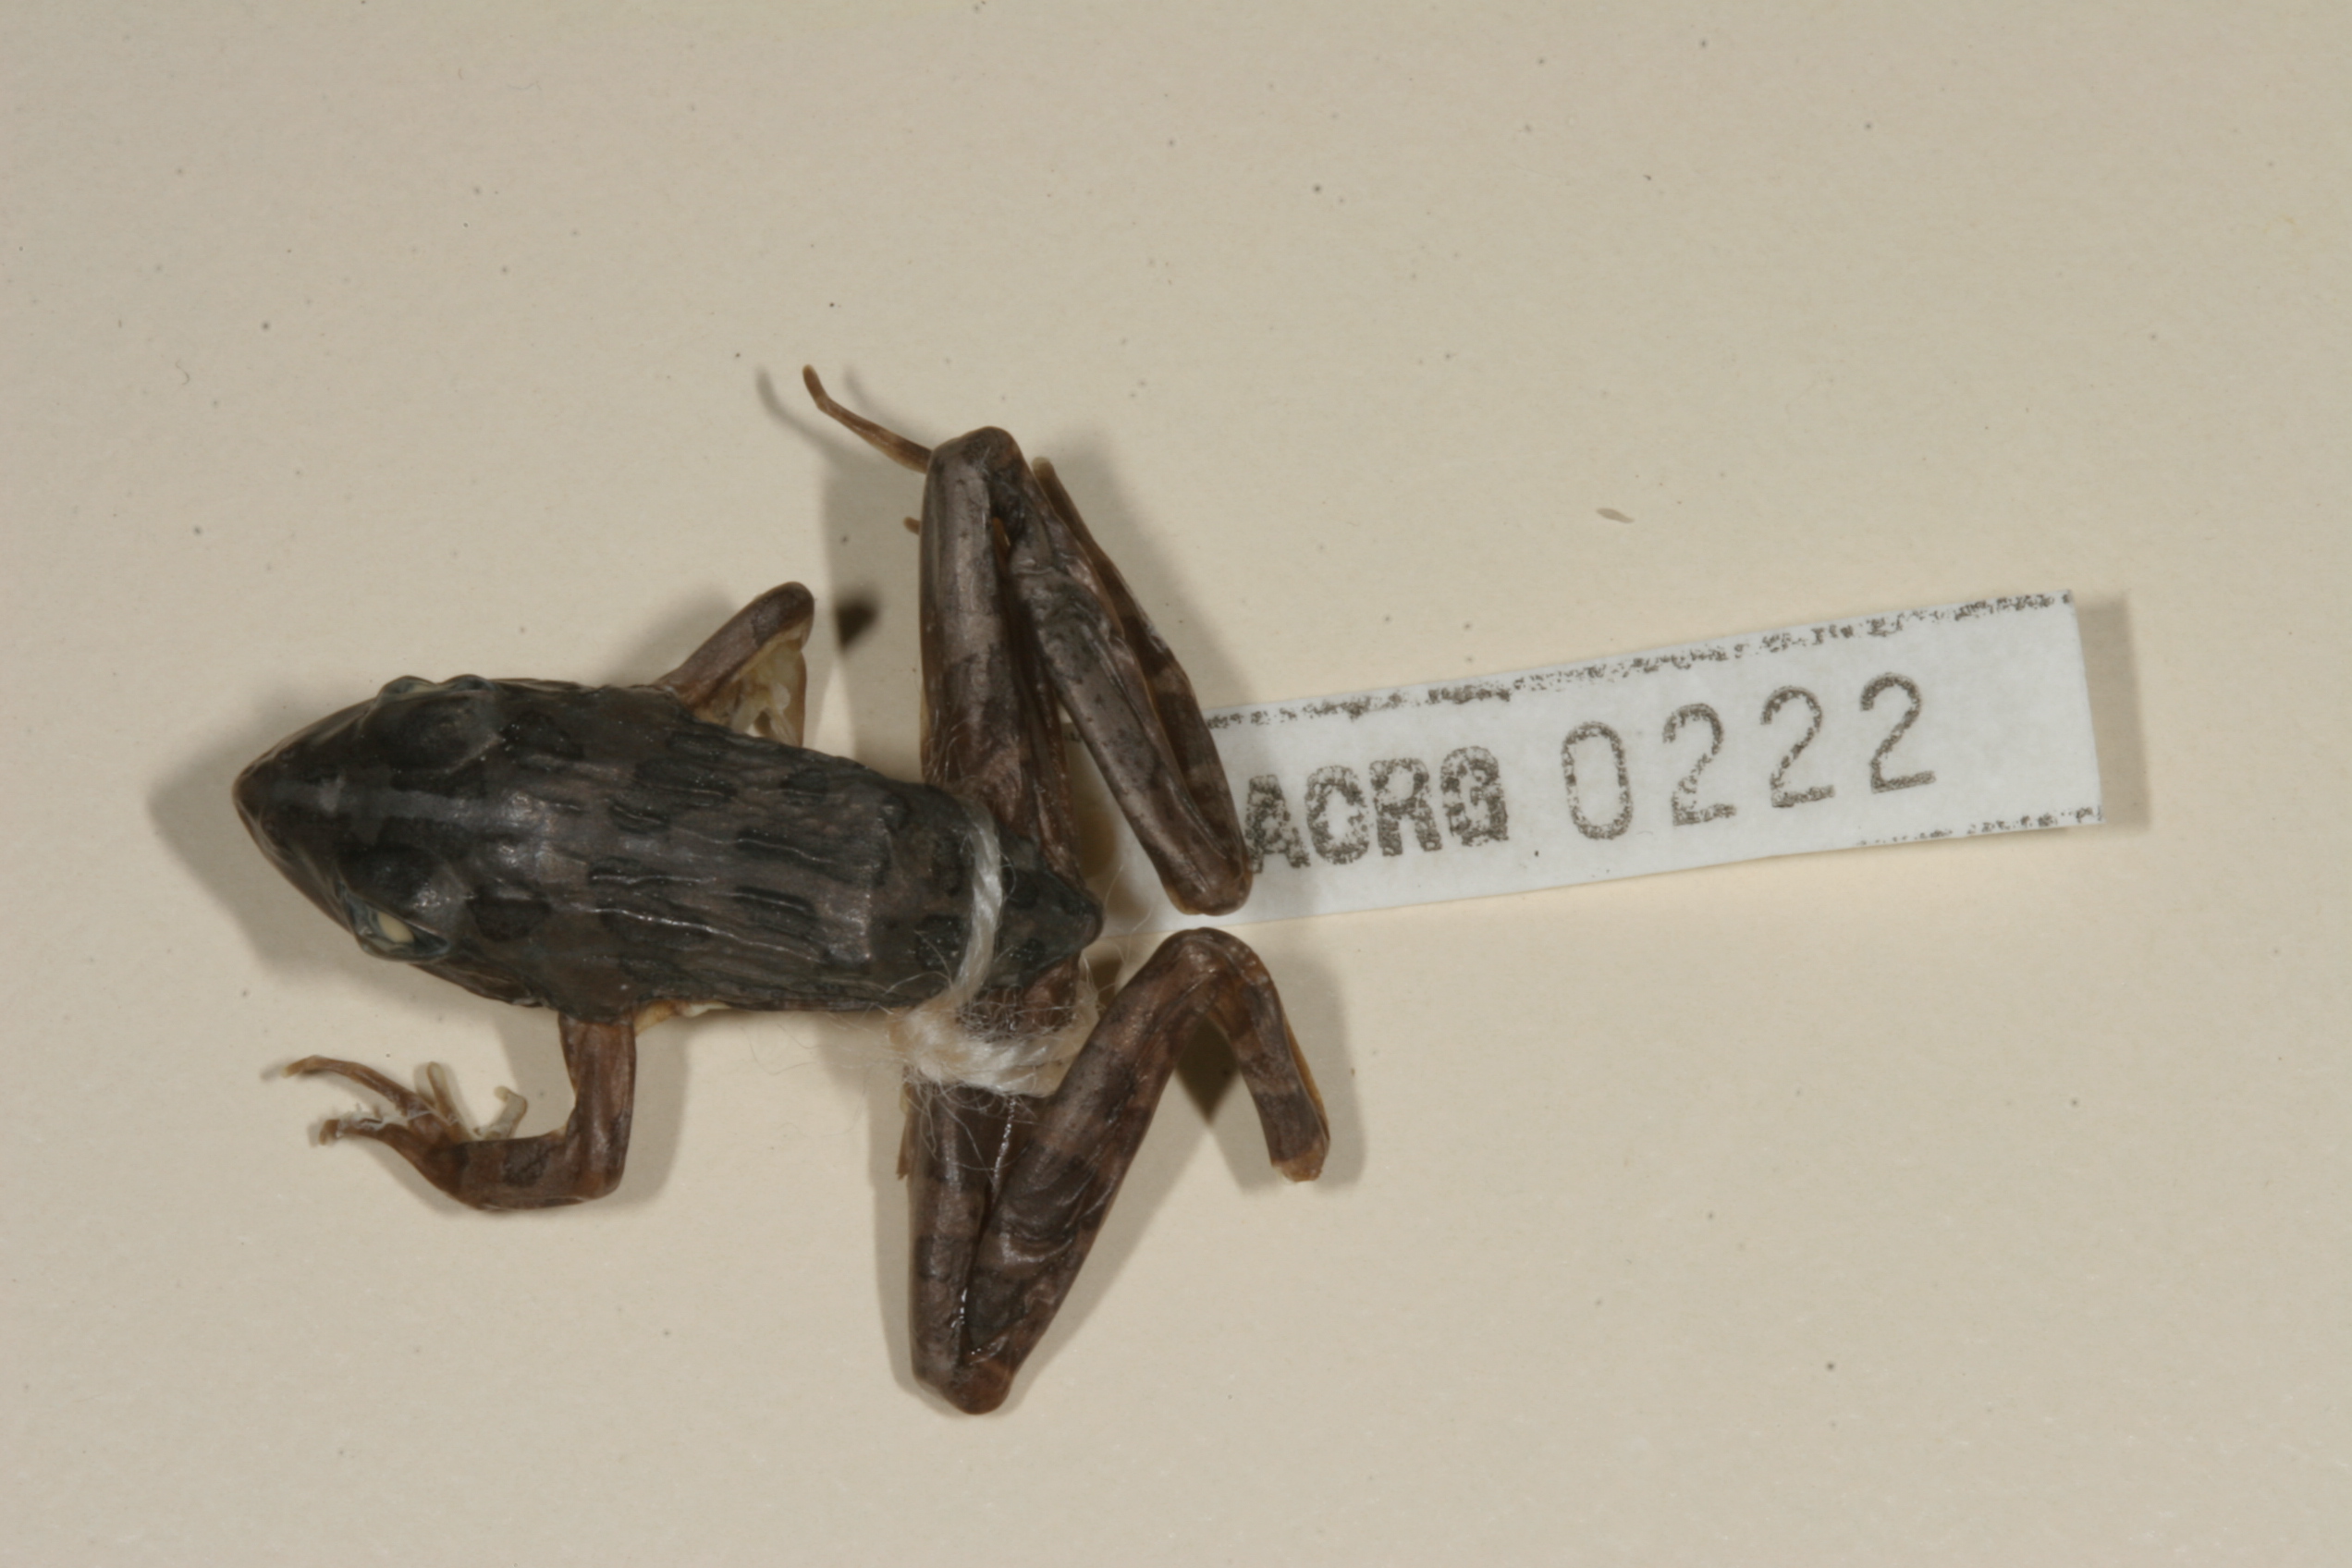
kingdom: Animalia
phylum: Chordata
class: Amphibia
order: Anura
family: Pyxicephalidae
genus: Amietia
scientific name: Amietia angolensis
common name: Dusky-throated frog
